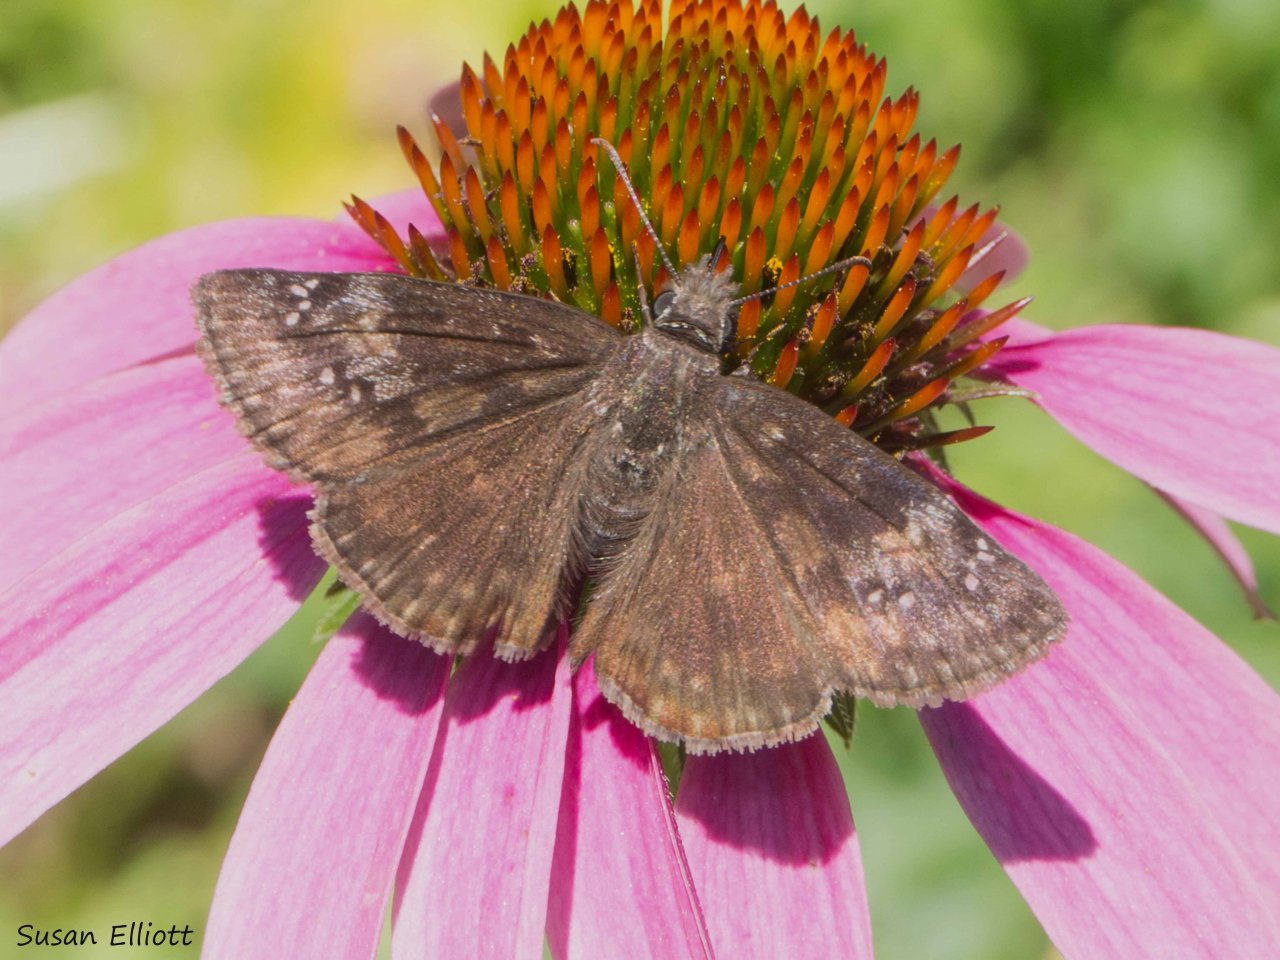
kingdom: Animalia
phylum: Arthropoda
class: Insecta
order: Lepidoptera
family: Hesperiidae
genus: Gesta
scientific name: Gesta
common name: Juvenal's Duskywing
